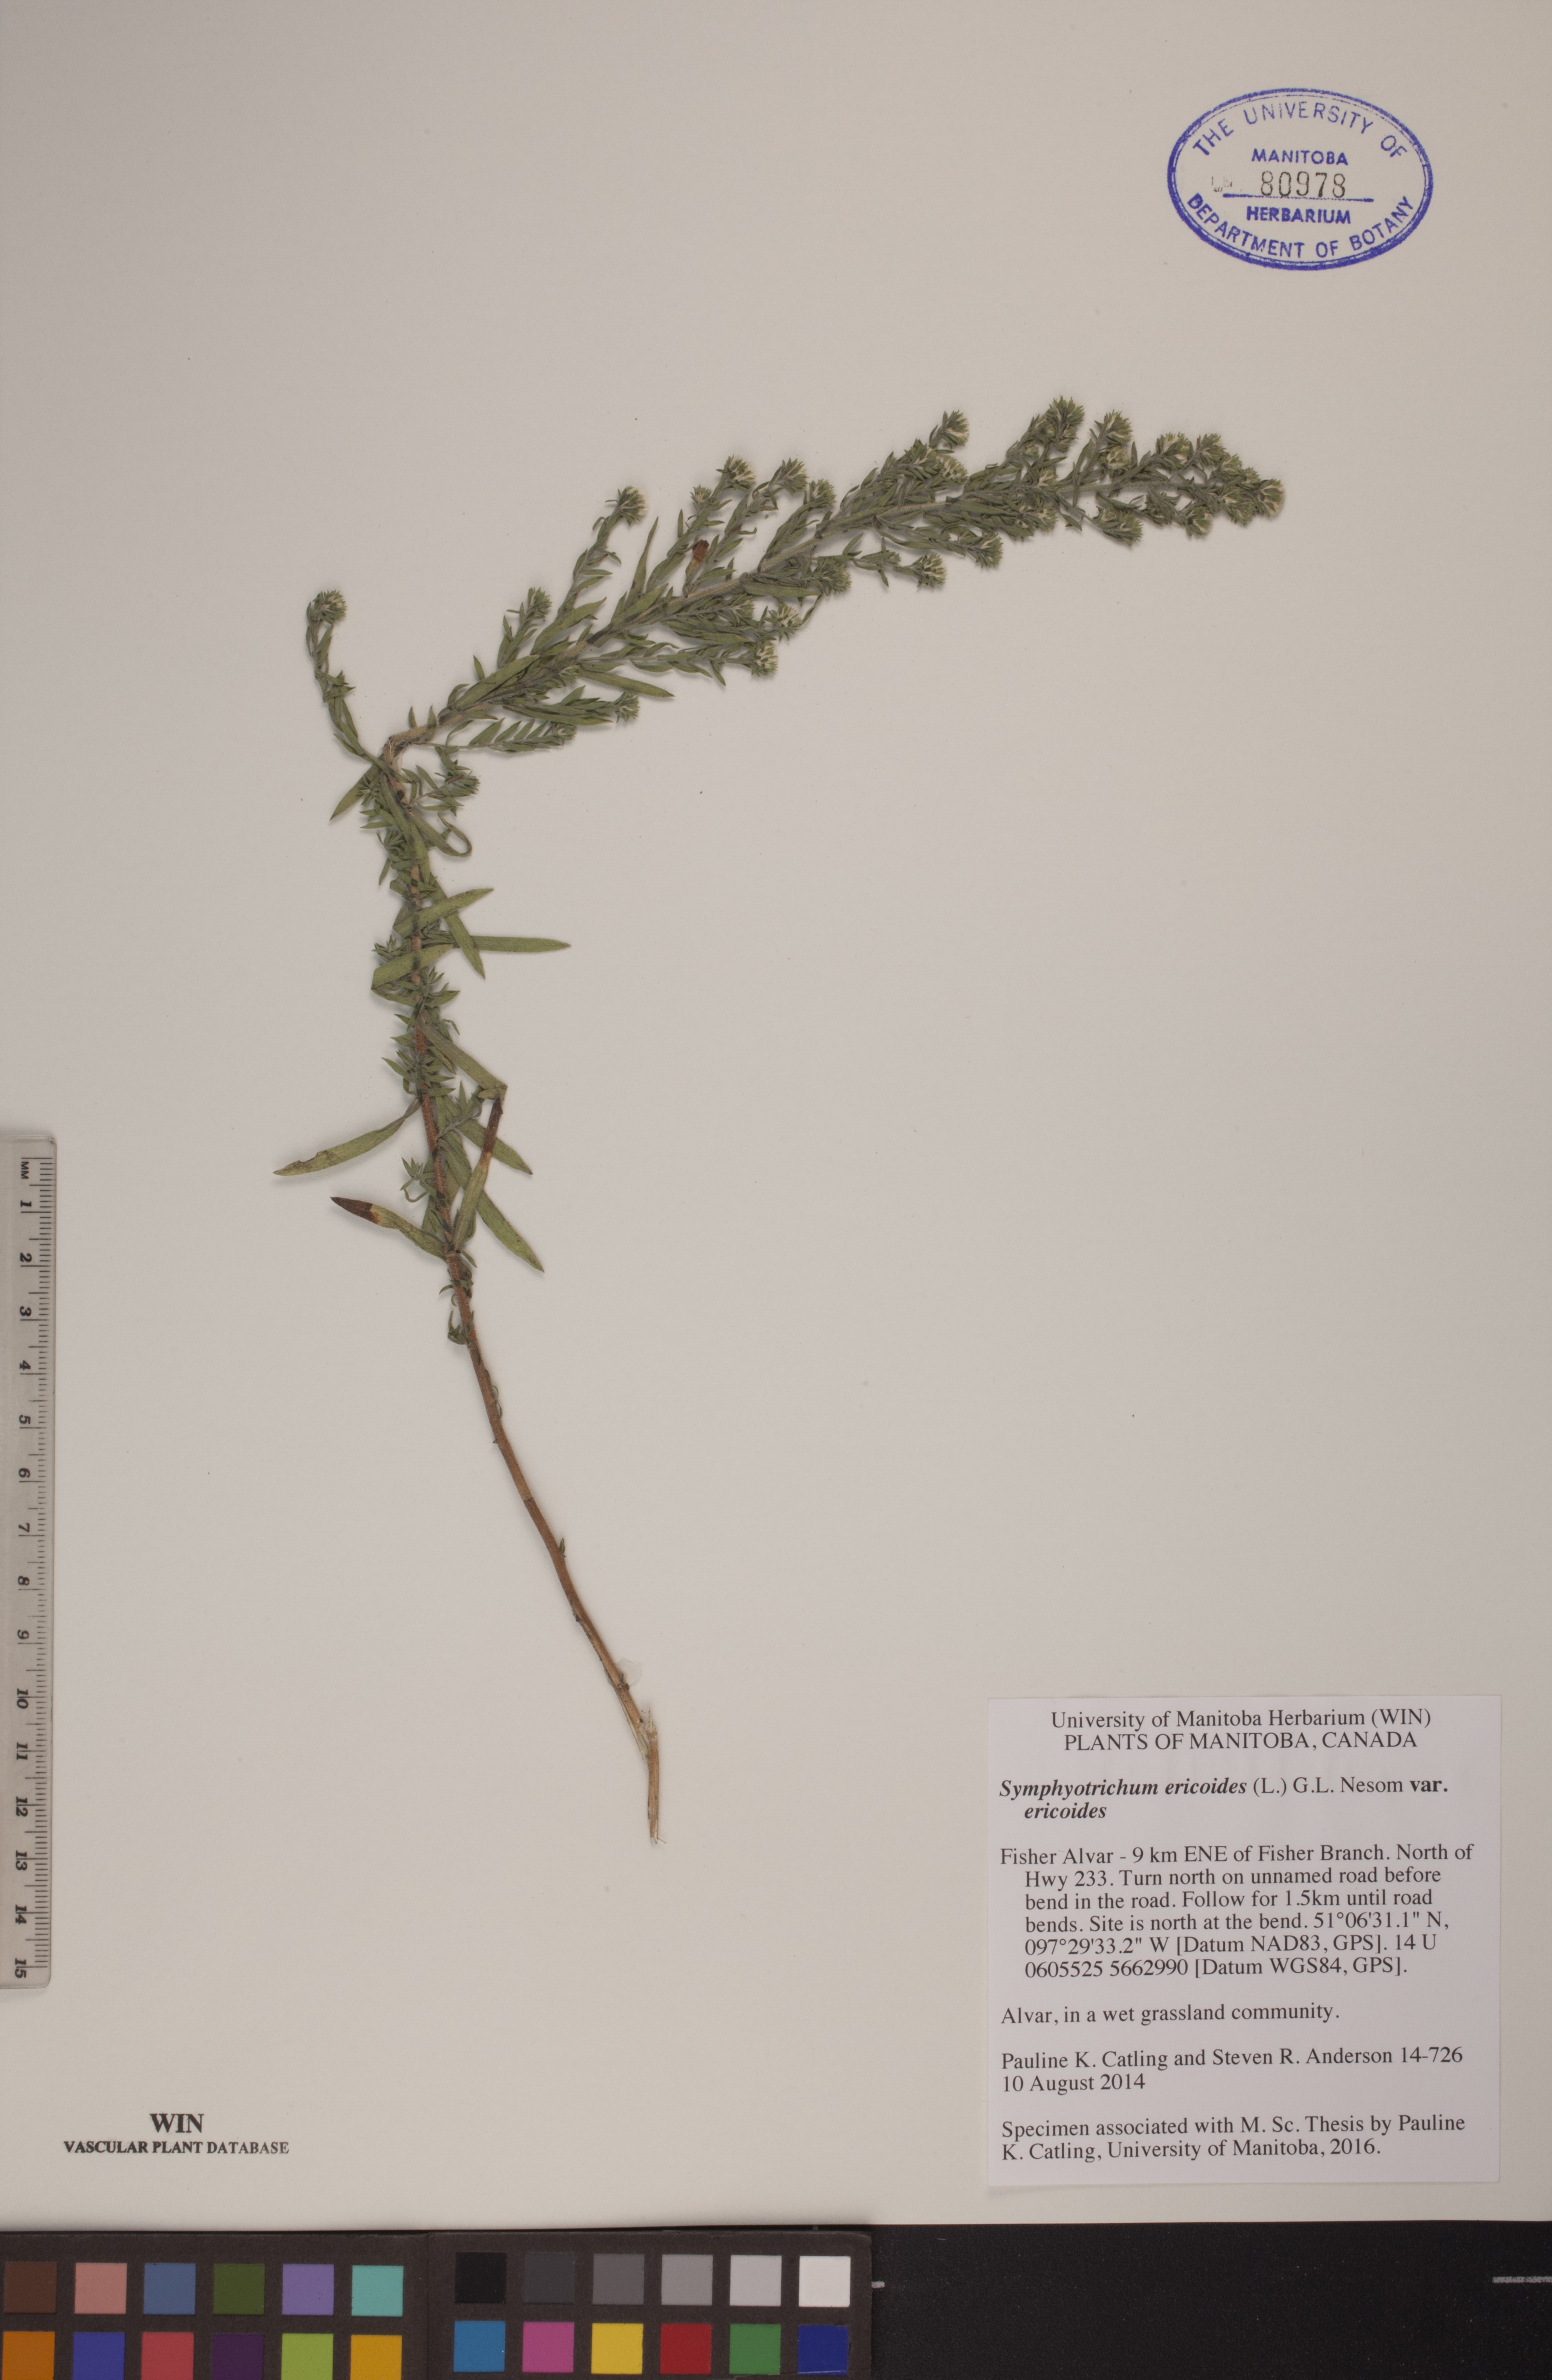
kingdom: Plantae
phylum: Tracheophyta
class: Magnoliopsida
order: Asterales
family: Asteraceae
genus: Symphyotrichum
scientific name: Symphyotrichum ericoides
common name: Heath aster
